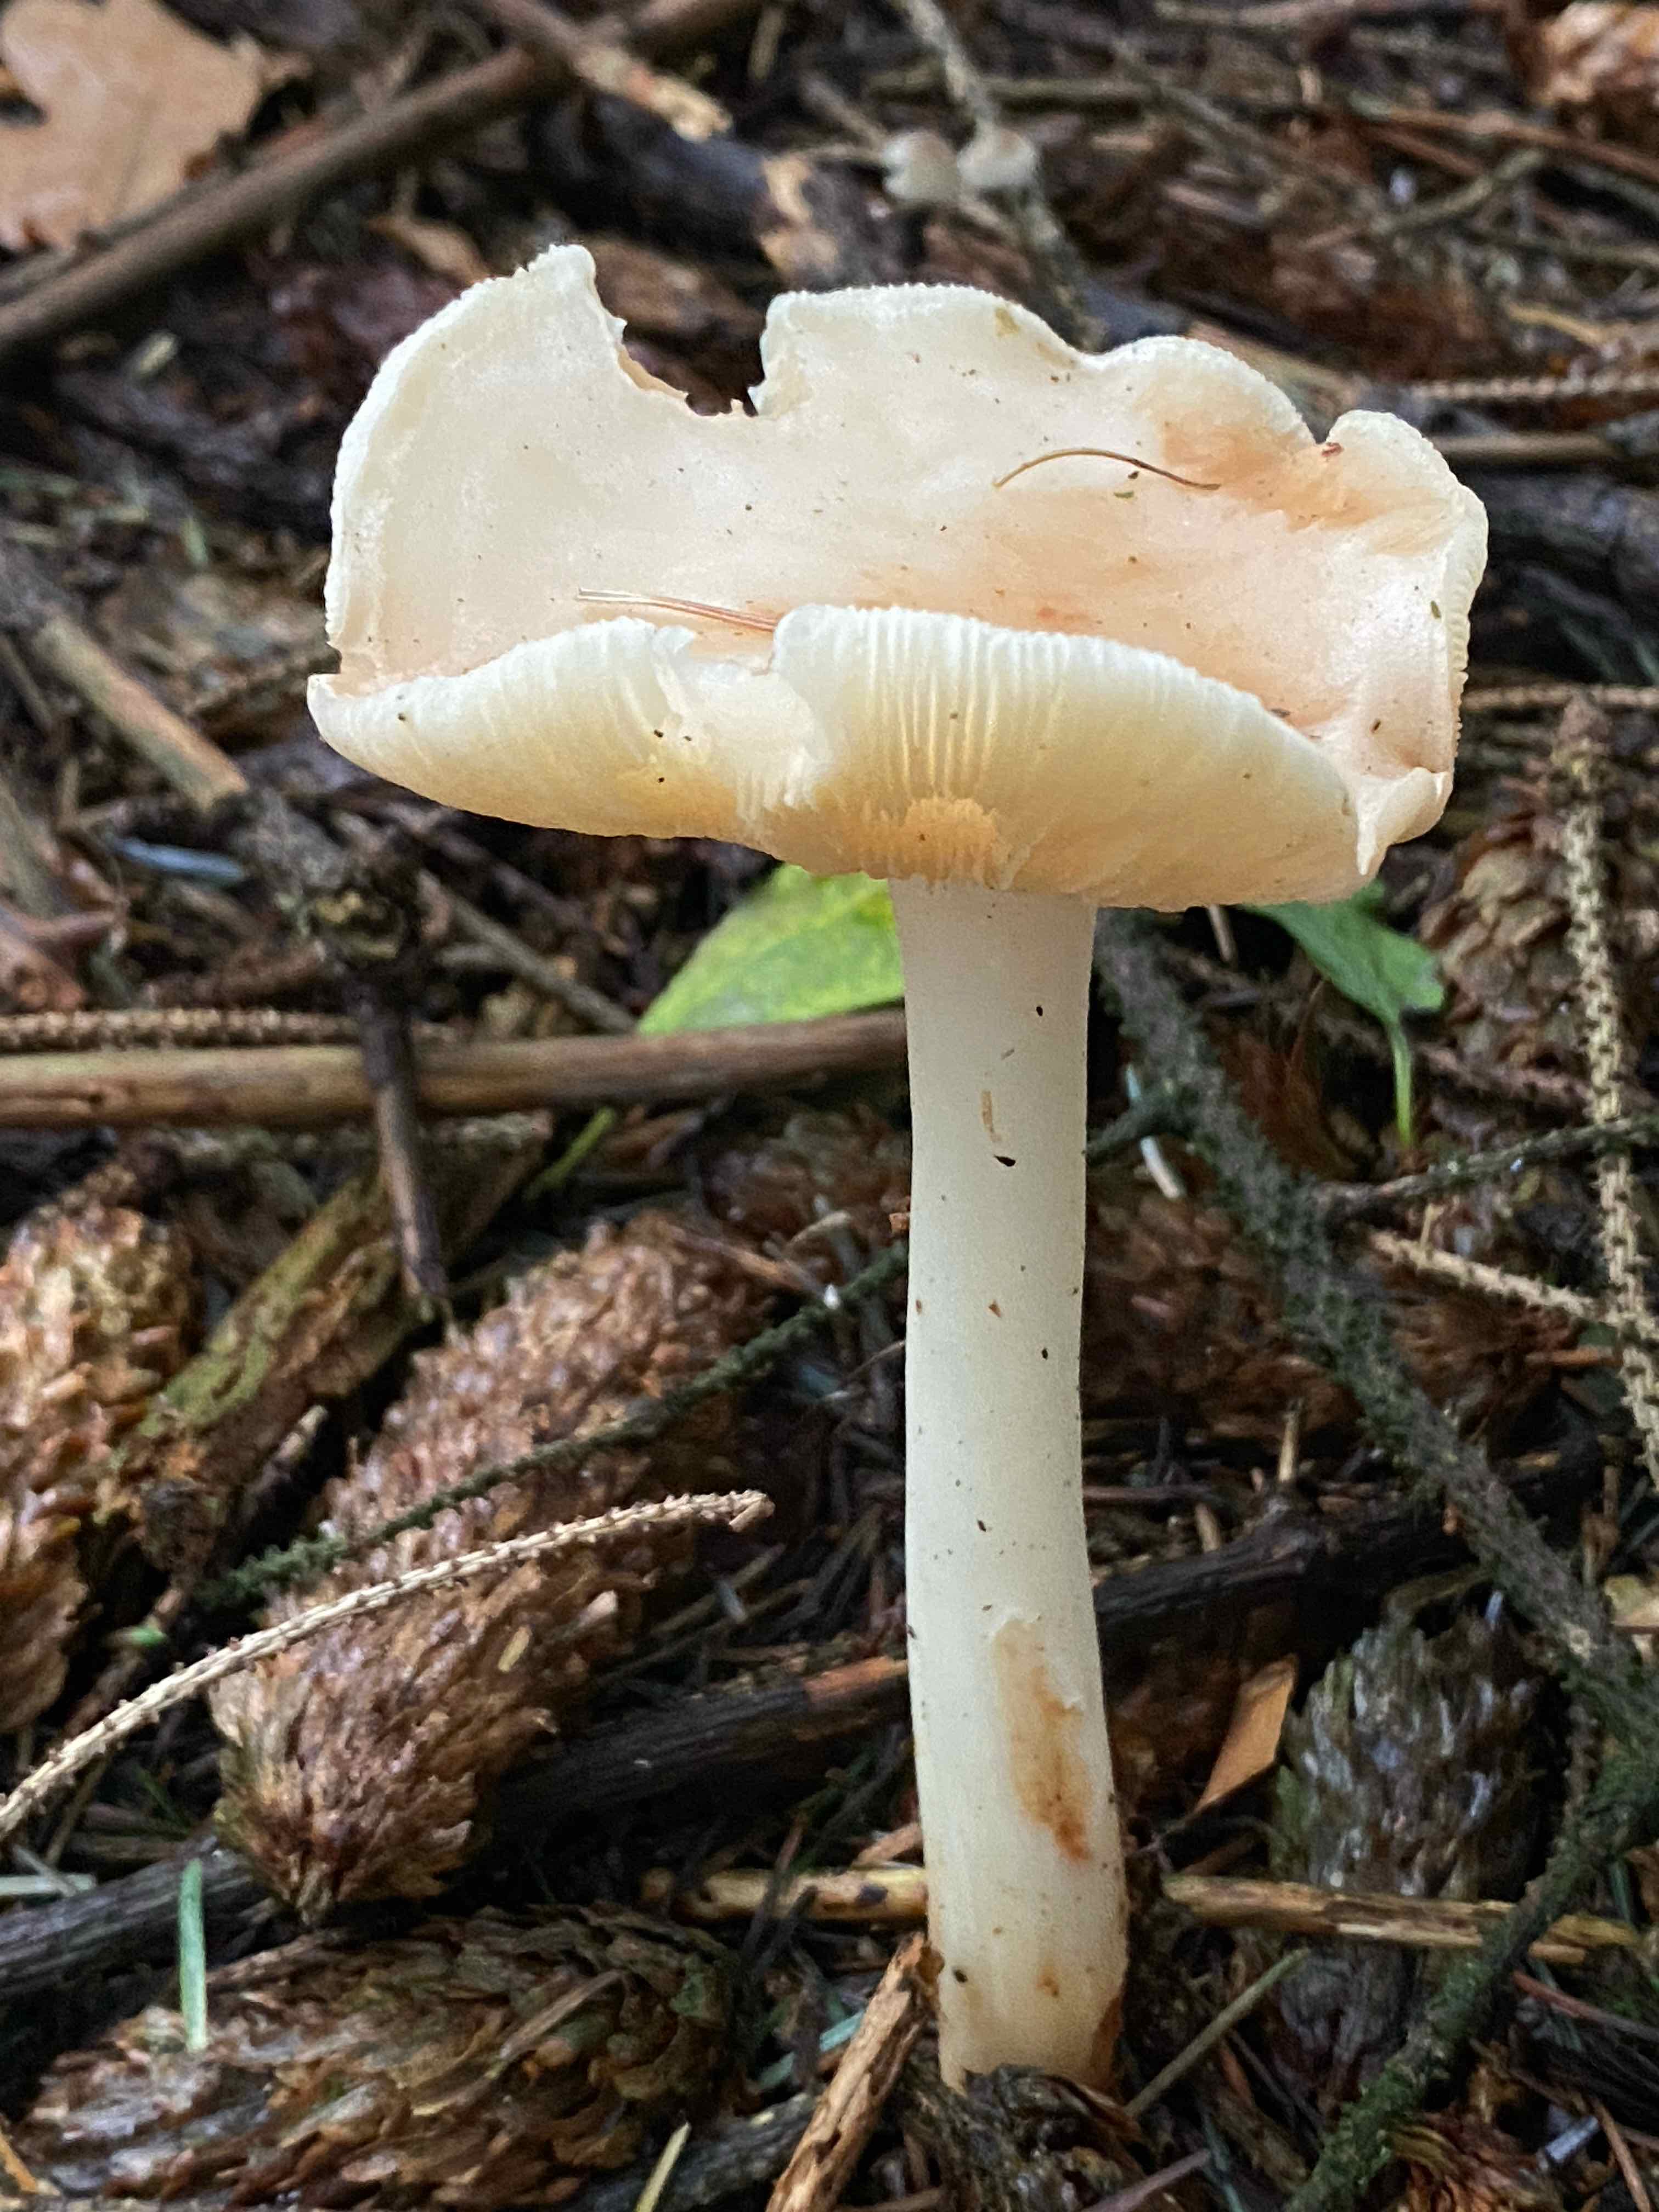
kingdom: Fungi
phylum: Basidiomycota
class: Agaricomycetes
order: Agaricales
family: Omphalotaceae
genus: Rhodocollybia
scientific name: Rhodocollybia maculata
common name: plettet fladhat
